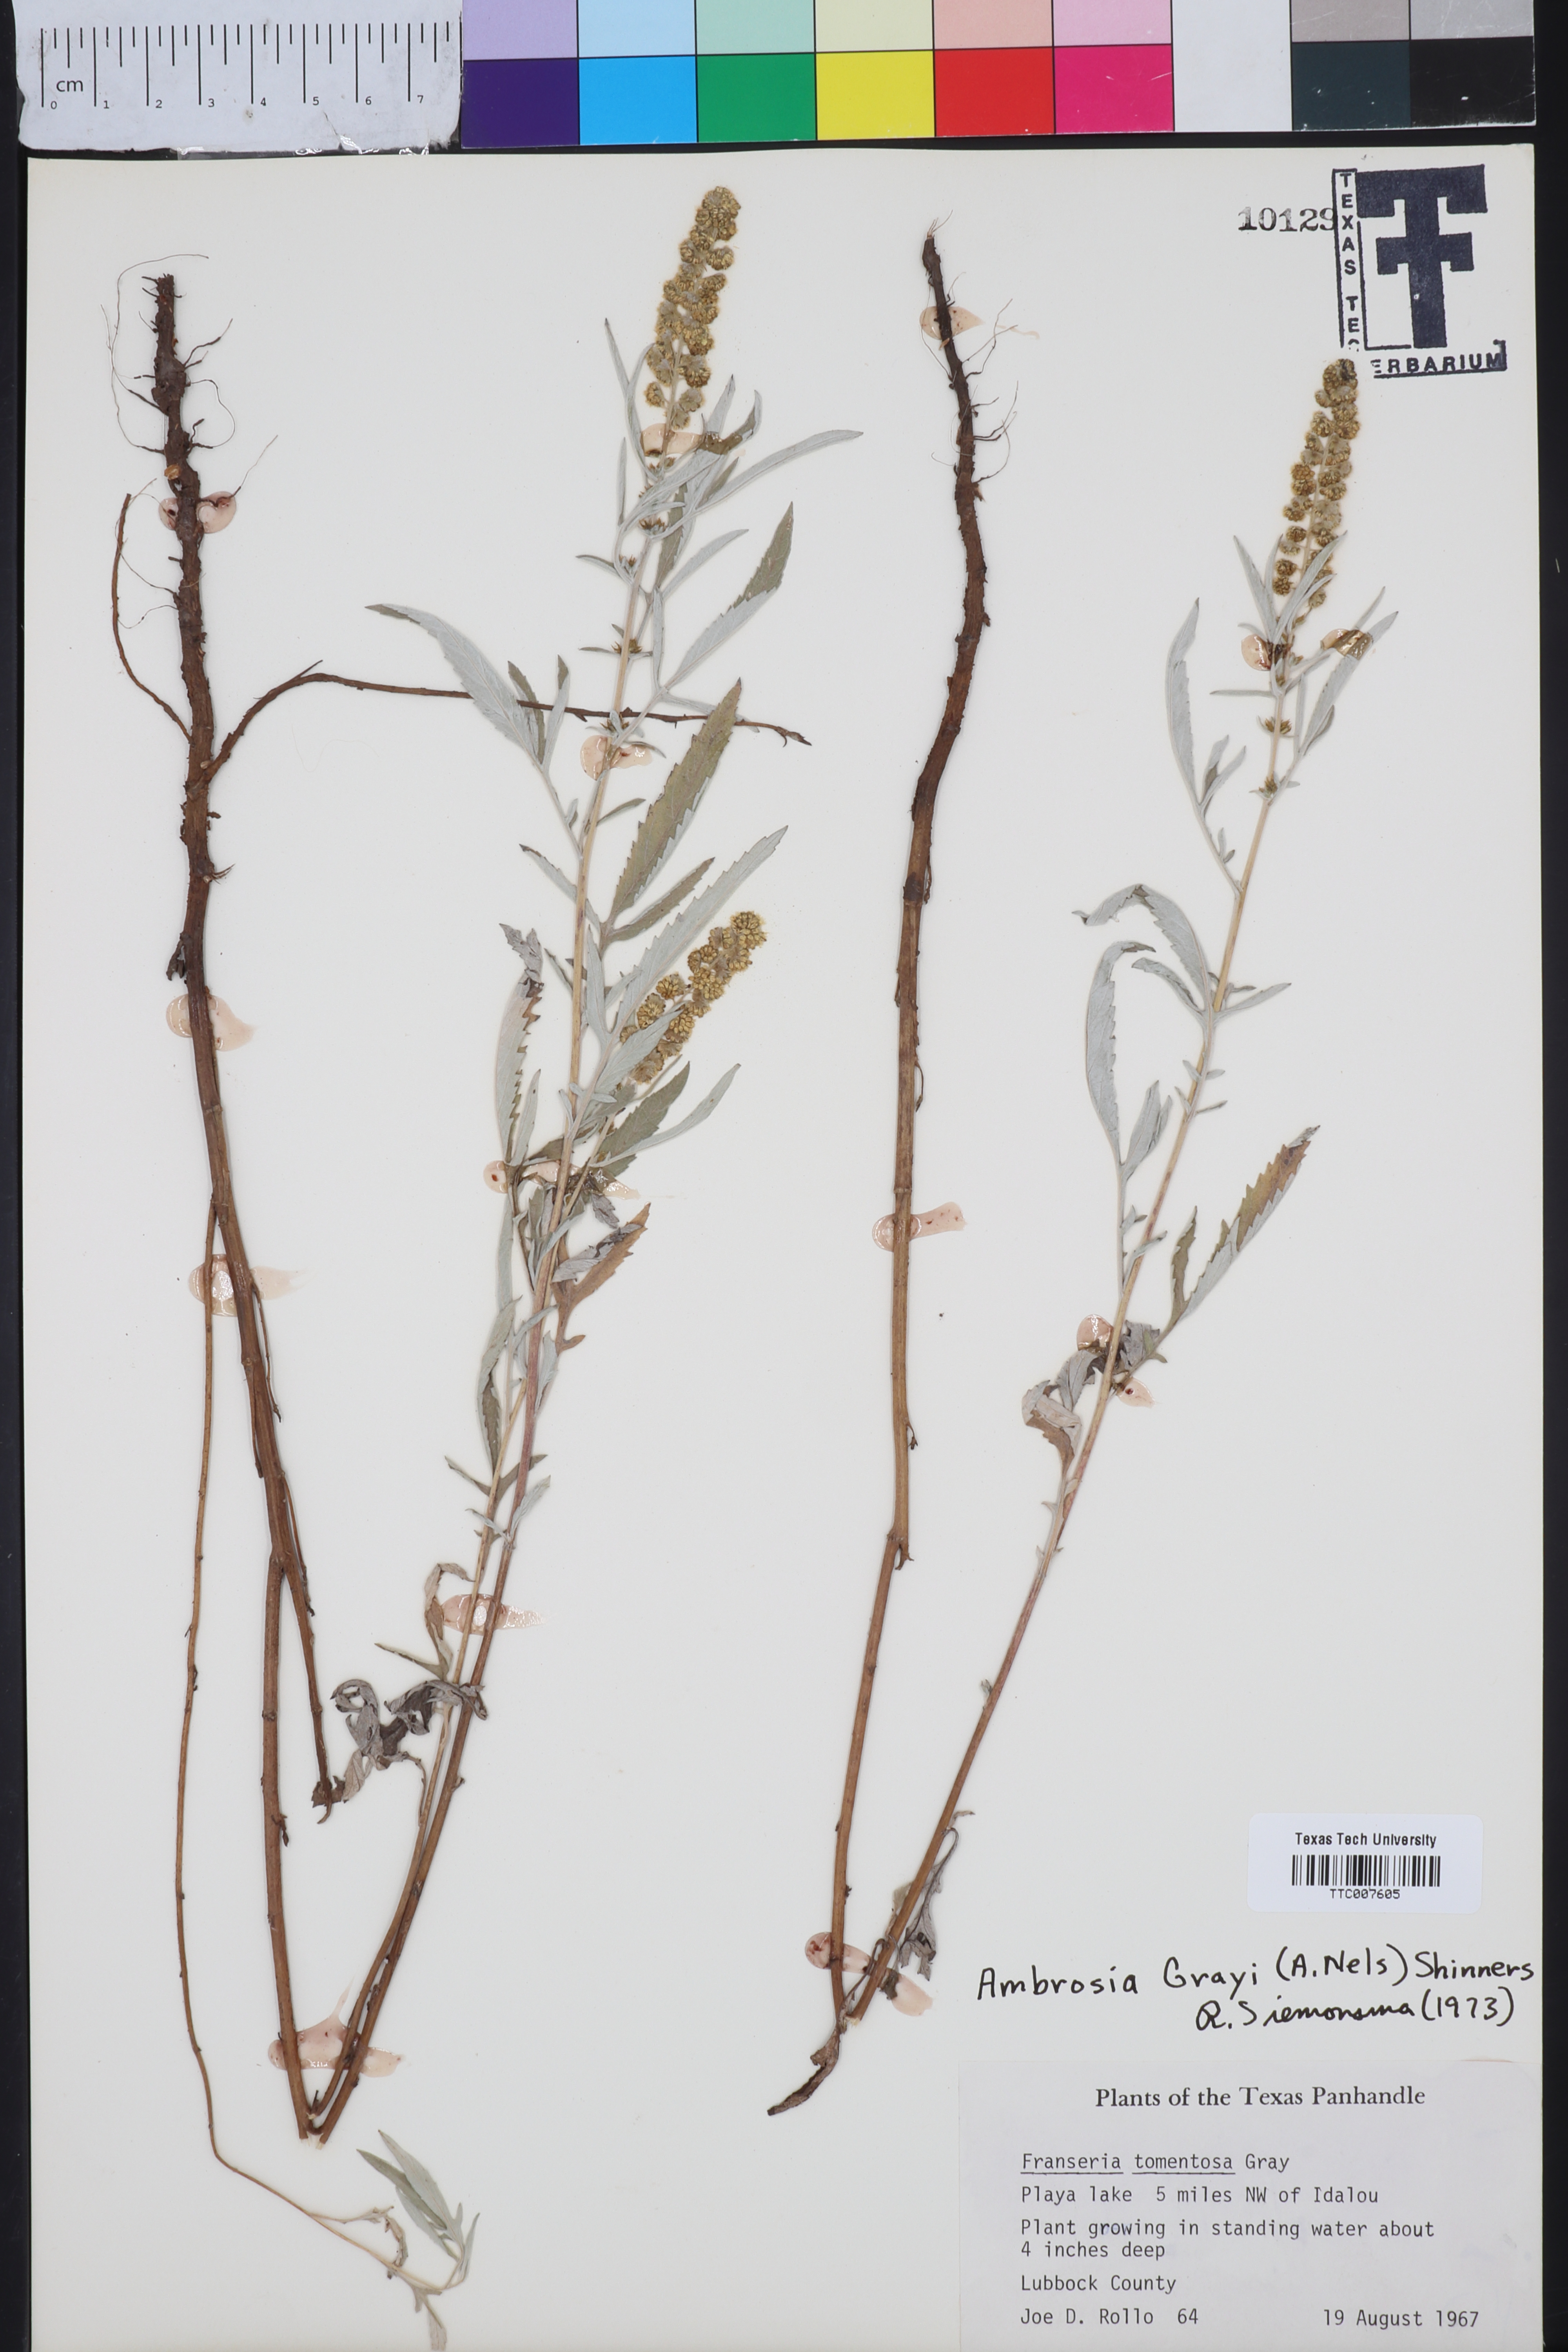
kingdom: Plantae
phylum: Tracheophyta
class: Magnoliopsida
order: Asterales
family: Asteraceae
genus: Ambrosia
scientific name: Ambrosia grayi
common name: Bur ragweed
